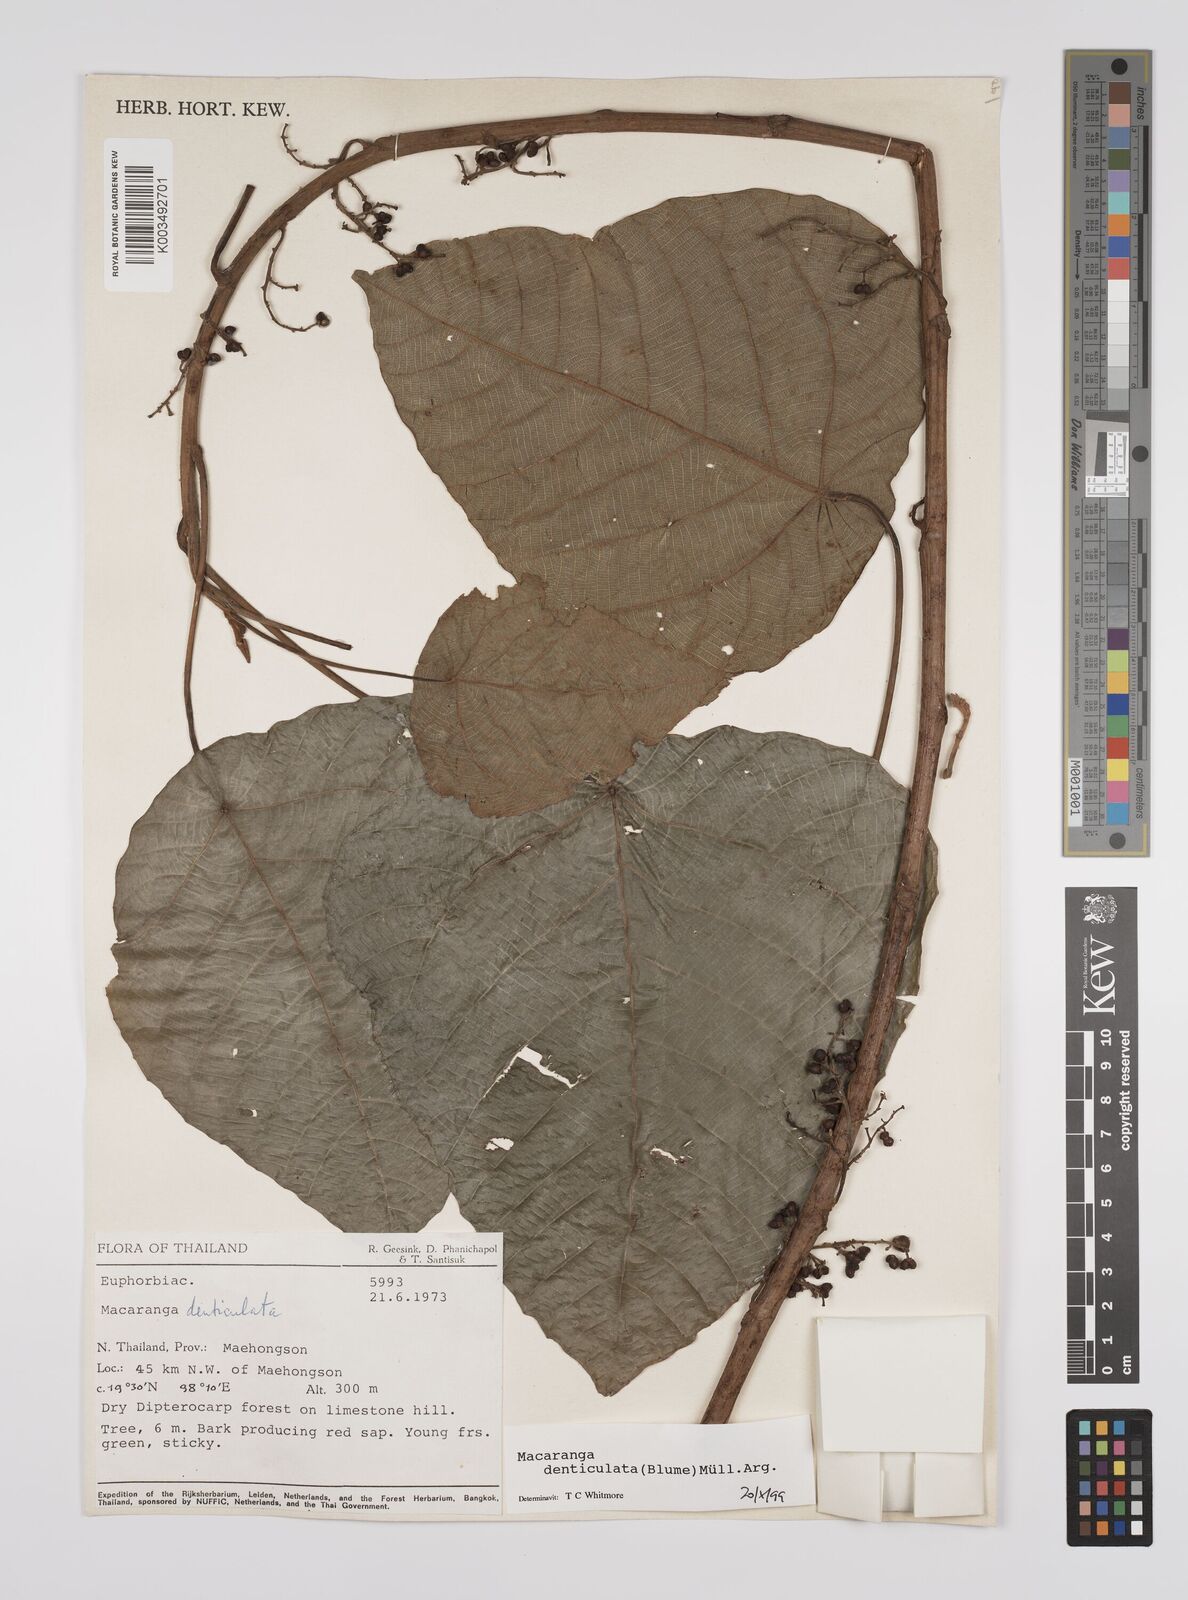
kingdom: Plantae
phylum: Tracheophyta
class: Magnoliopsida
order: Malpighiales
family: Euphorbiaceae
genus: Macaranga
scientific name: Macaranga denticulata
